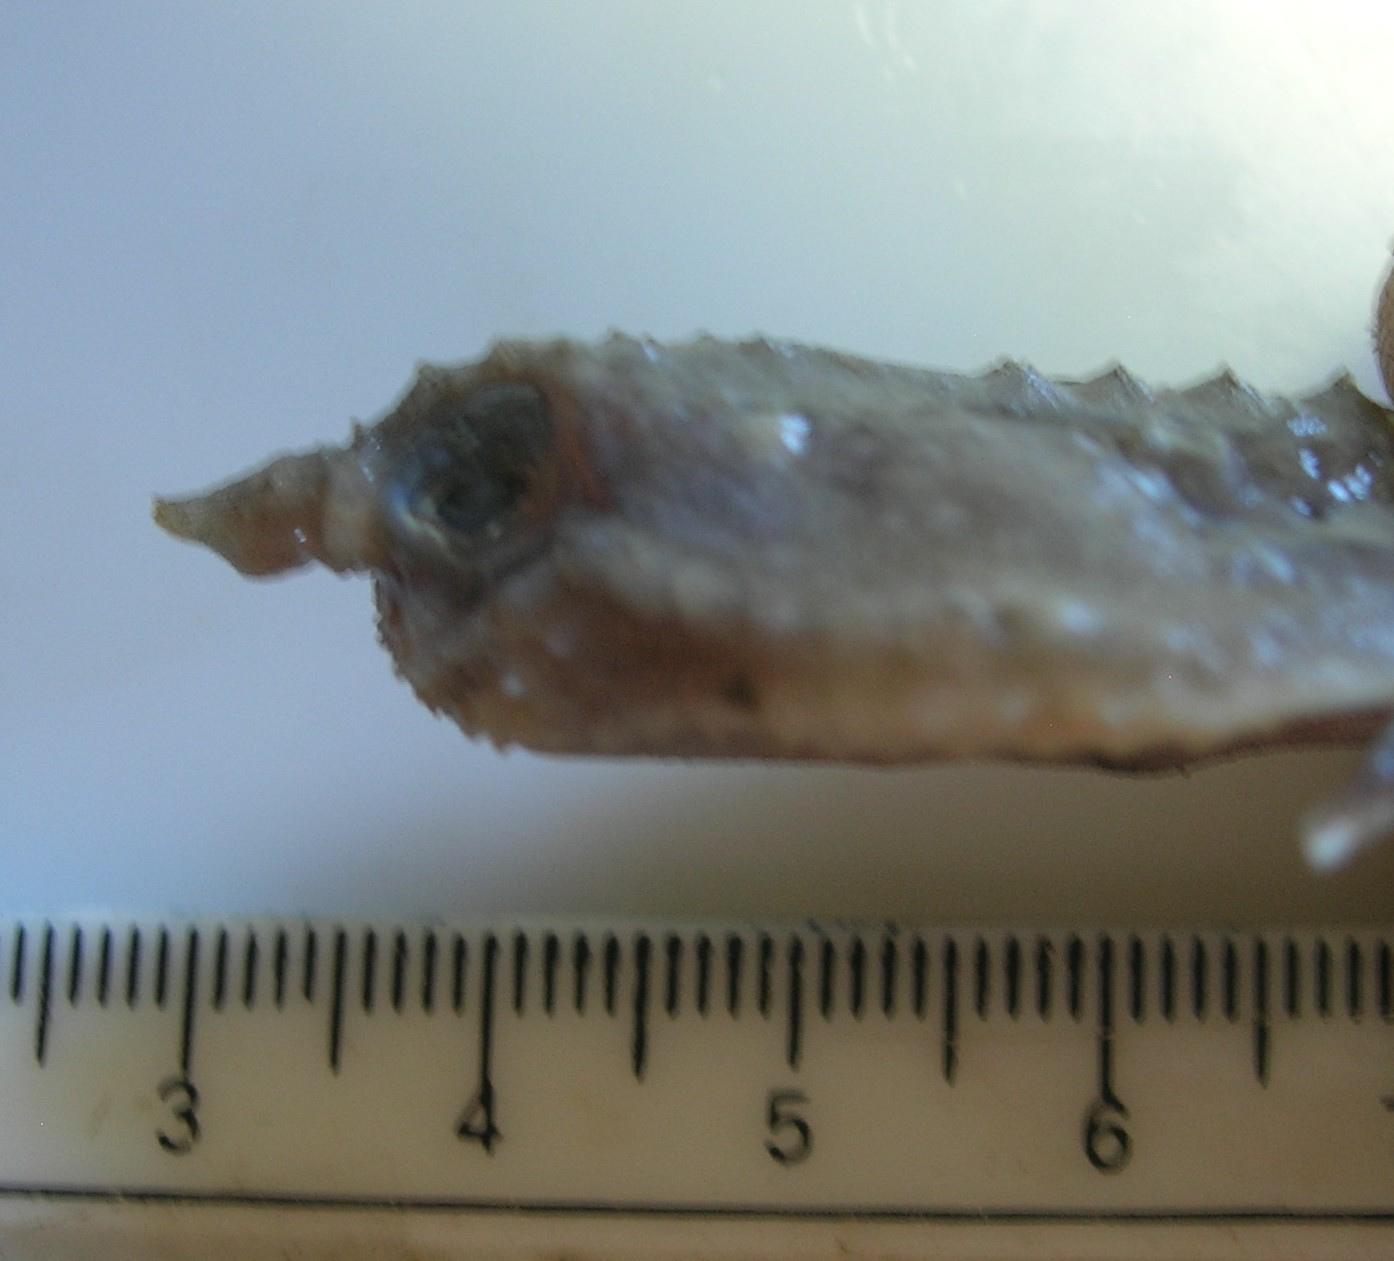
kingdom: Animalia
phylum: Chordata
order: Lophiiformes
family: Ogcocephalidae
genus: Malthopsis
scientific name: Malthopsis austrafricana
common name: South african triangular batfish
